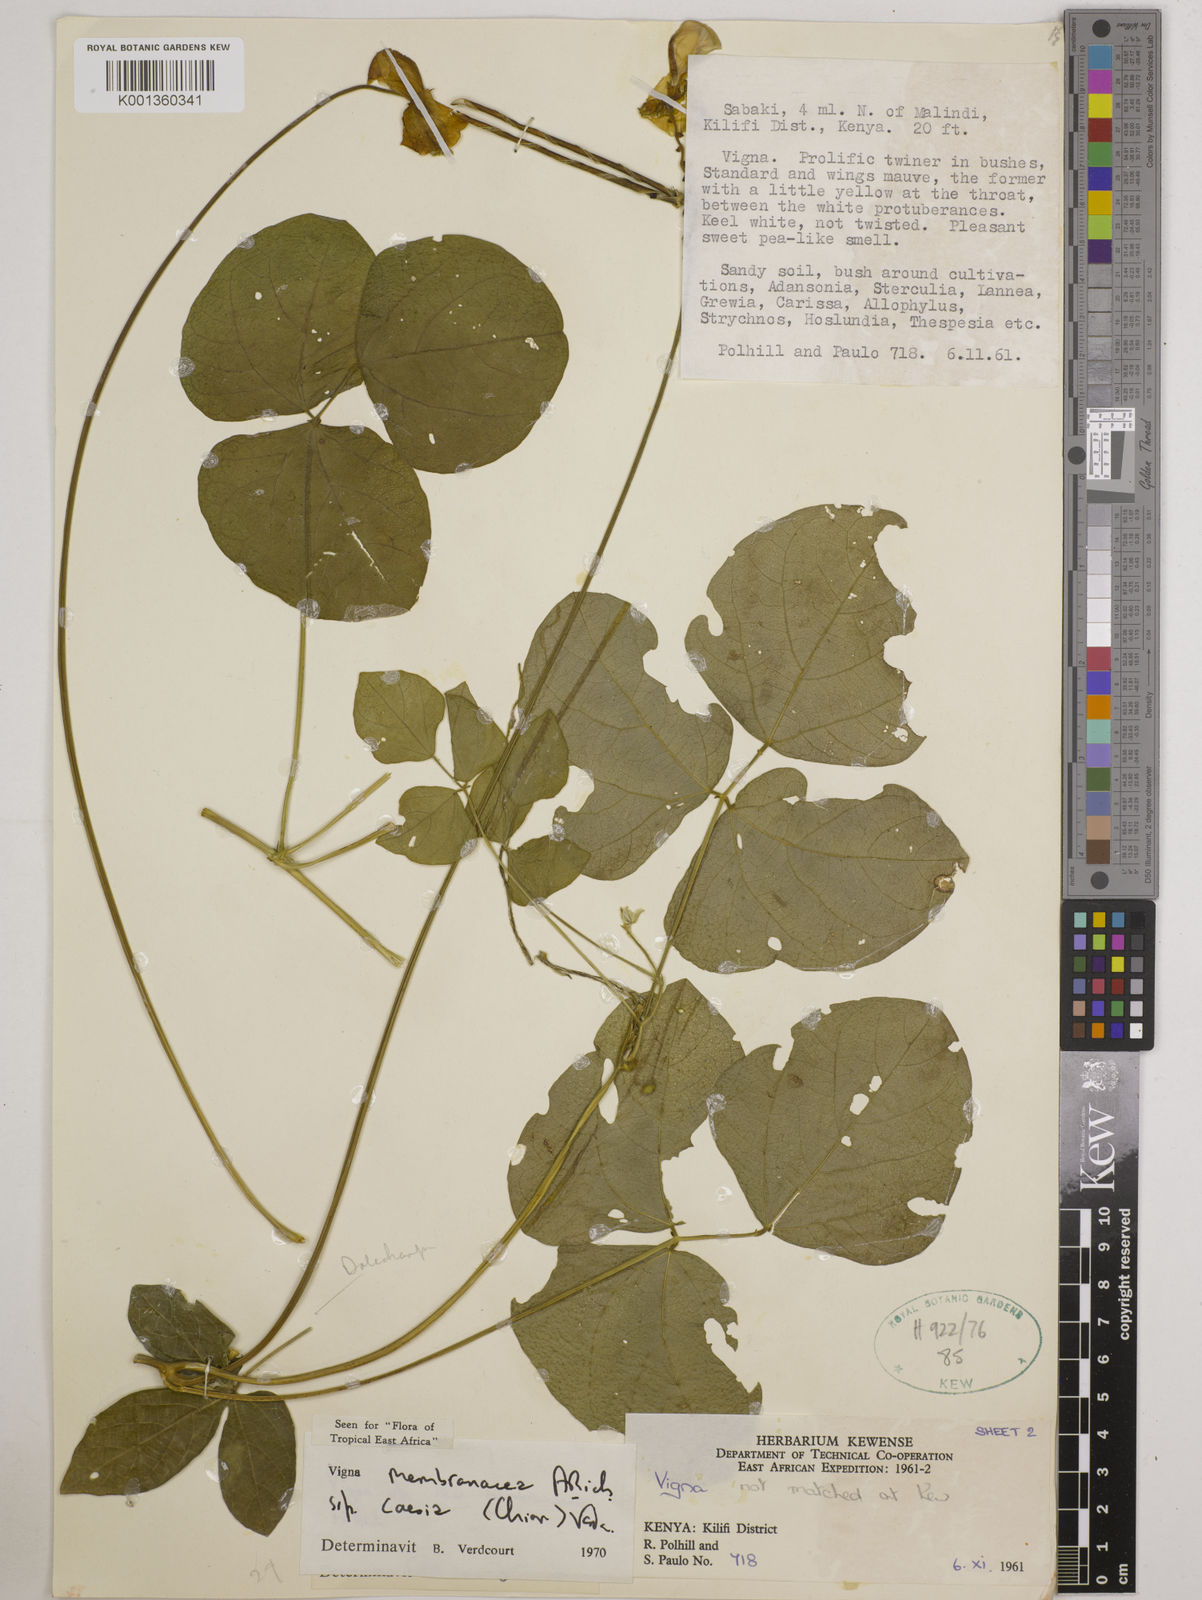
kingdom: Plantae
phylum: Tracheophyta
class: Magnoliopsida
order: Fabales
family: Fabaceae
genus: Vigna
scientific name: Vigna
